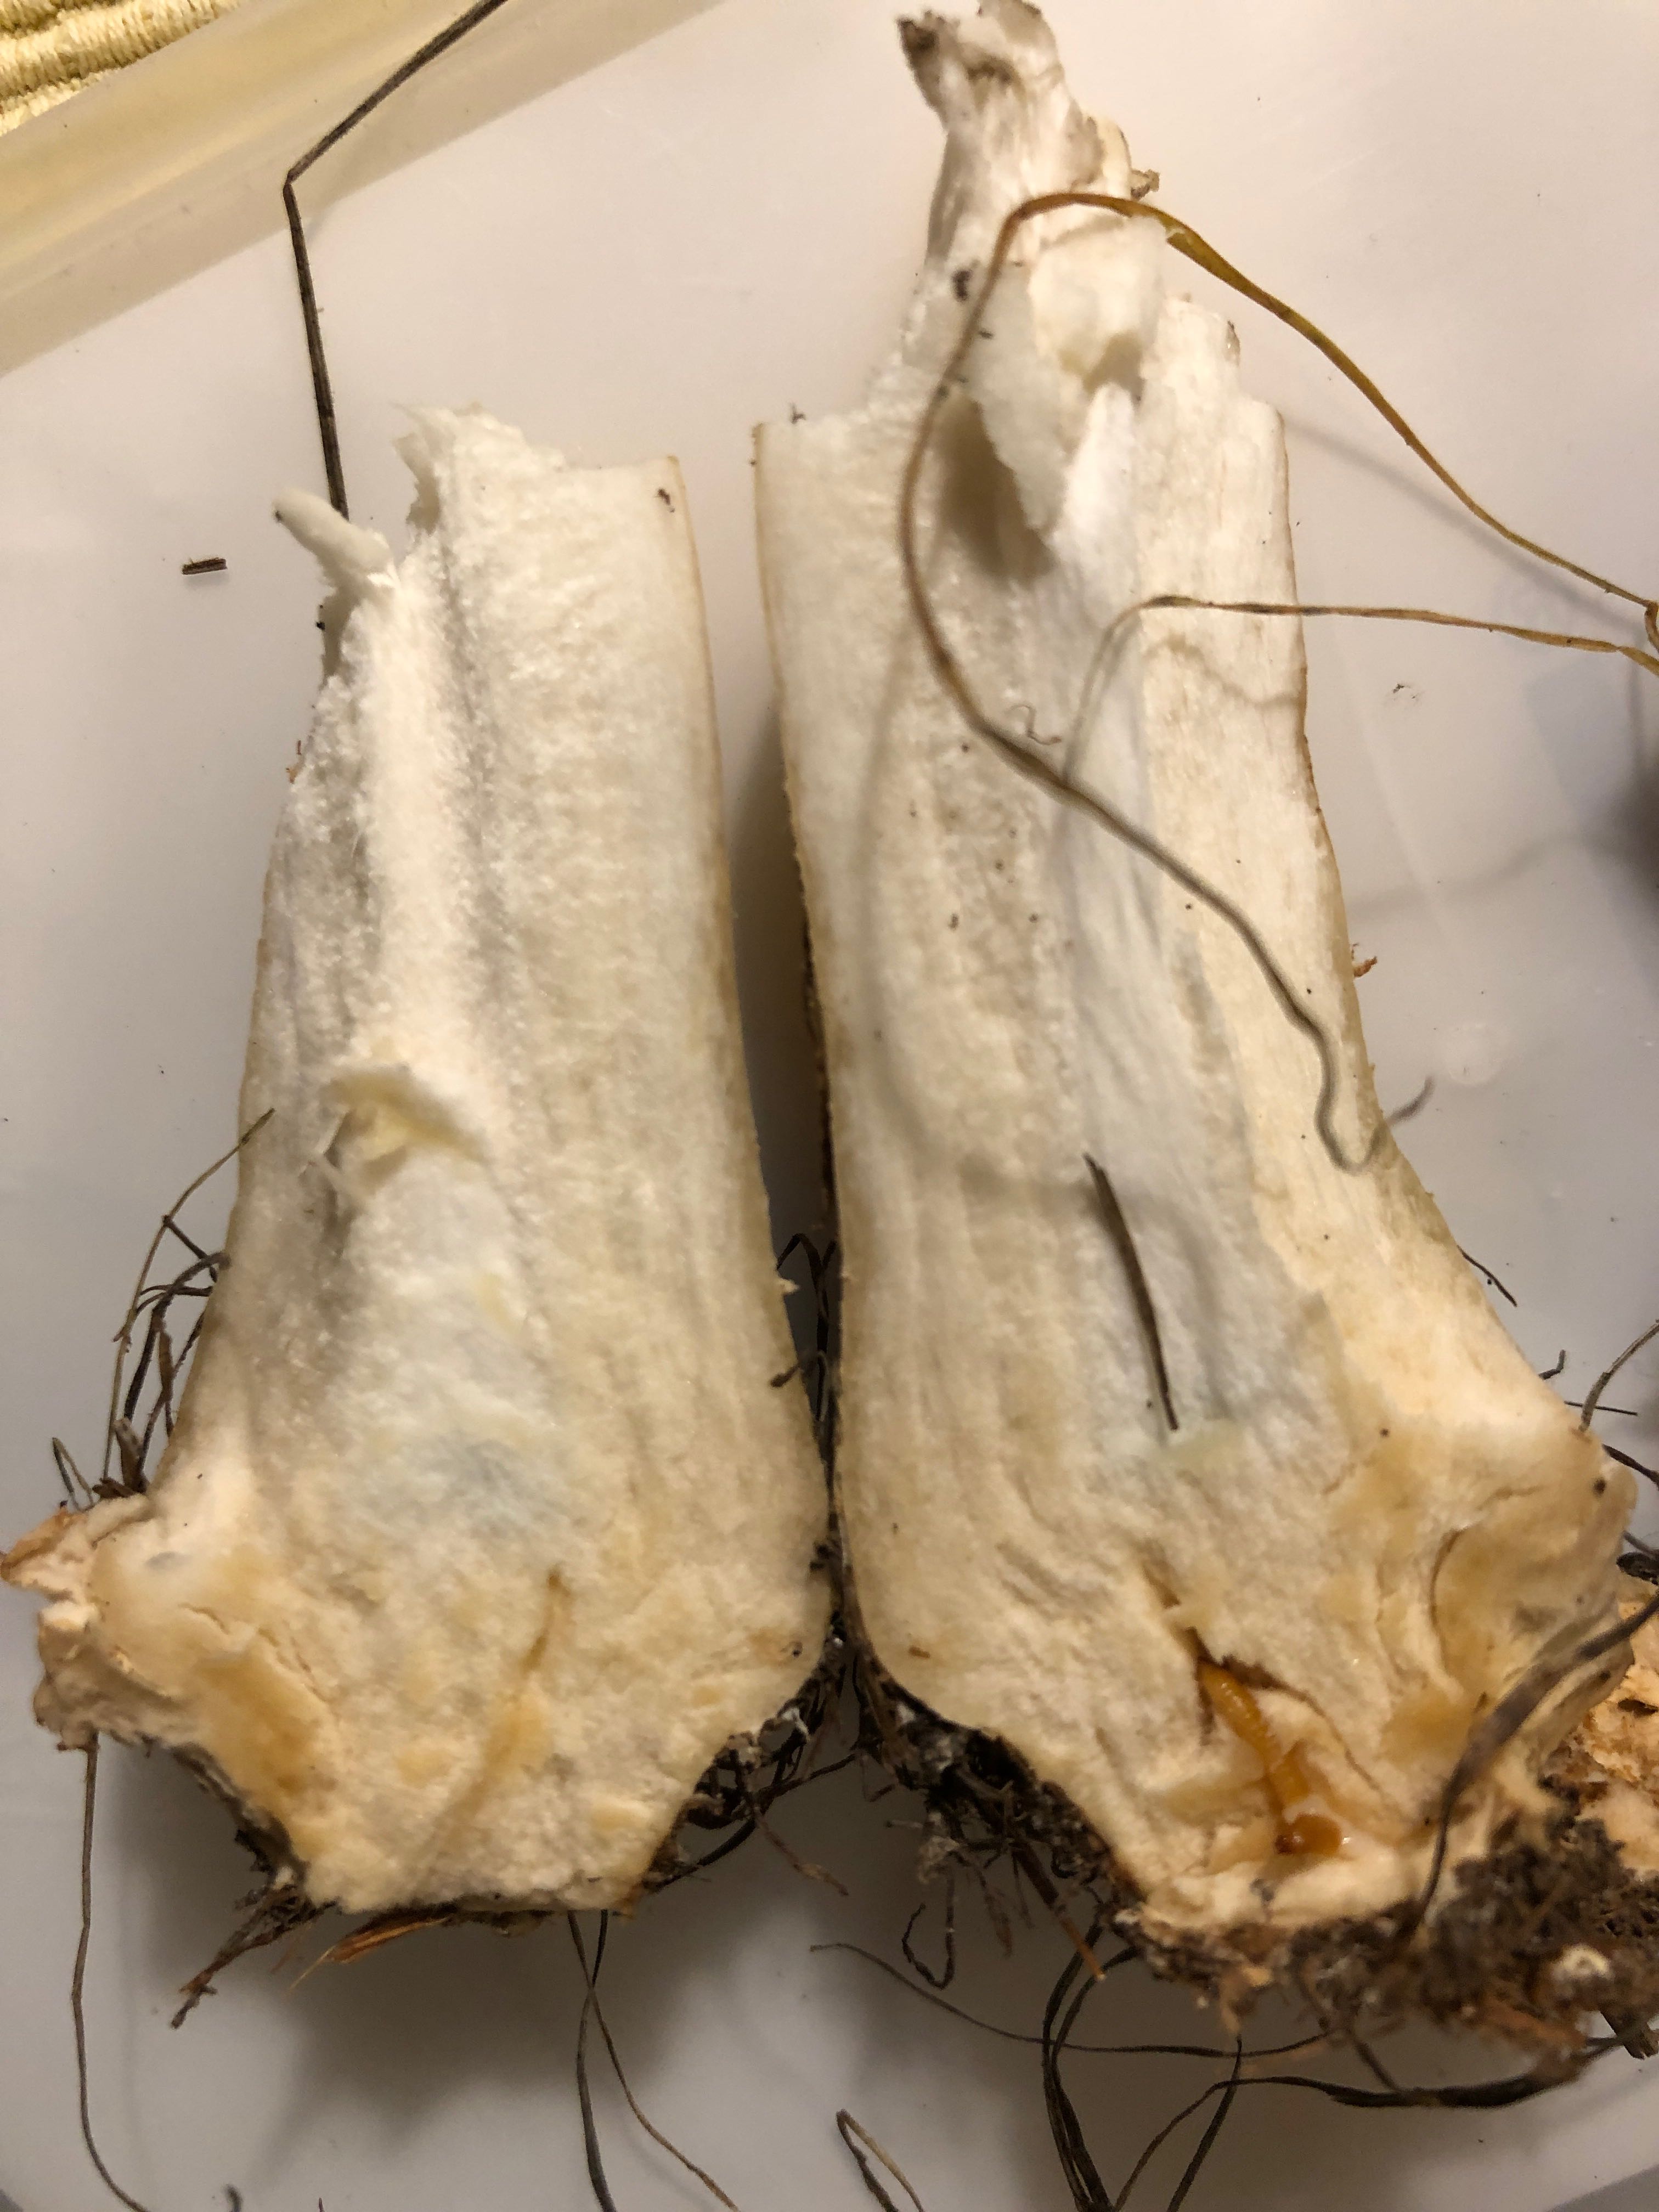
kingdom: Fungi
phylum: Basidiomycota
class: Agaricomycetes
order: Agaricales
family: Agaricaceae
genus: Agaricus
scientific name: Agaricus litoralis
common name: kyst-champignon
